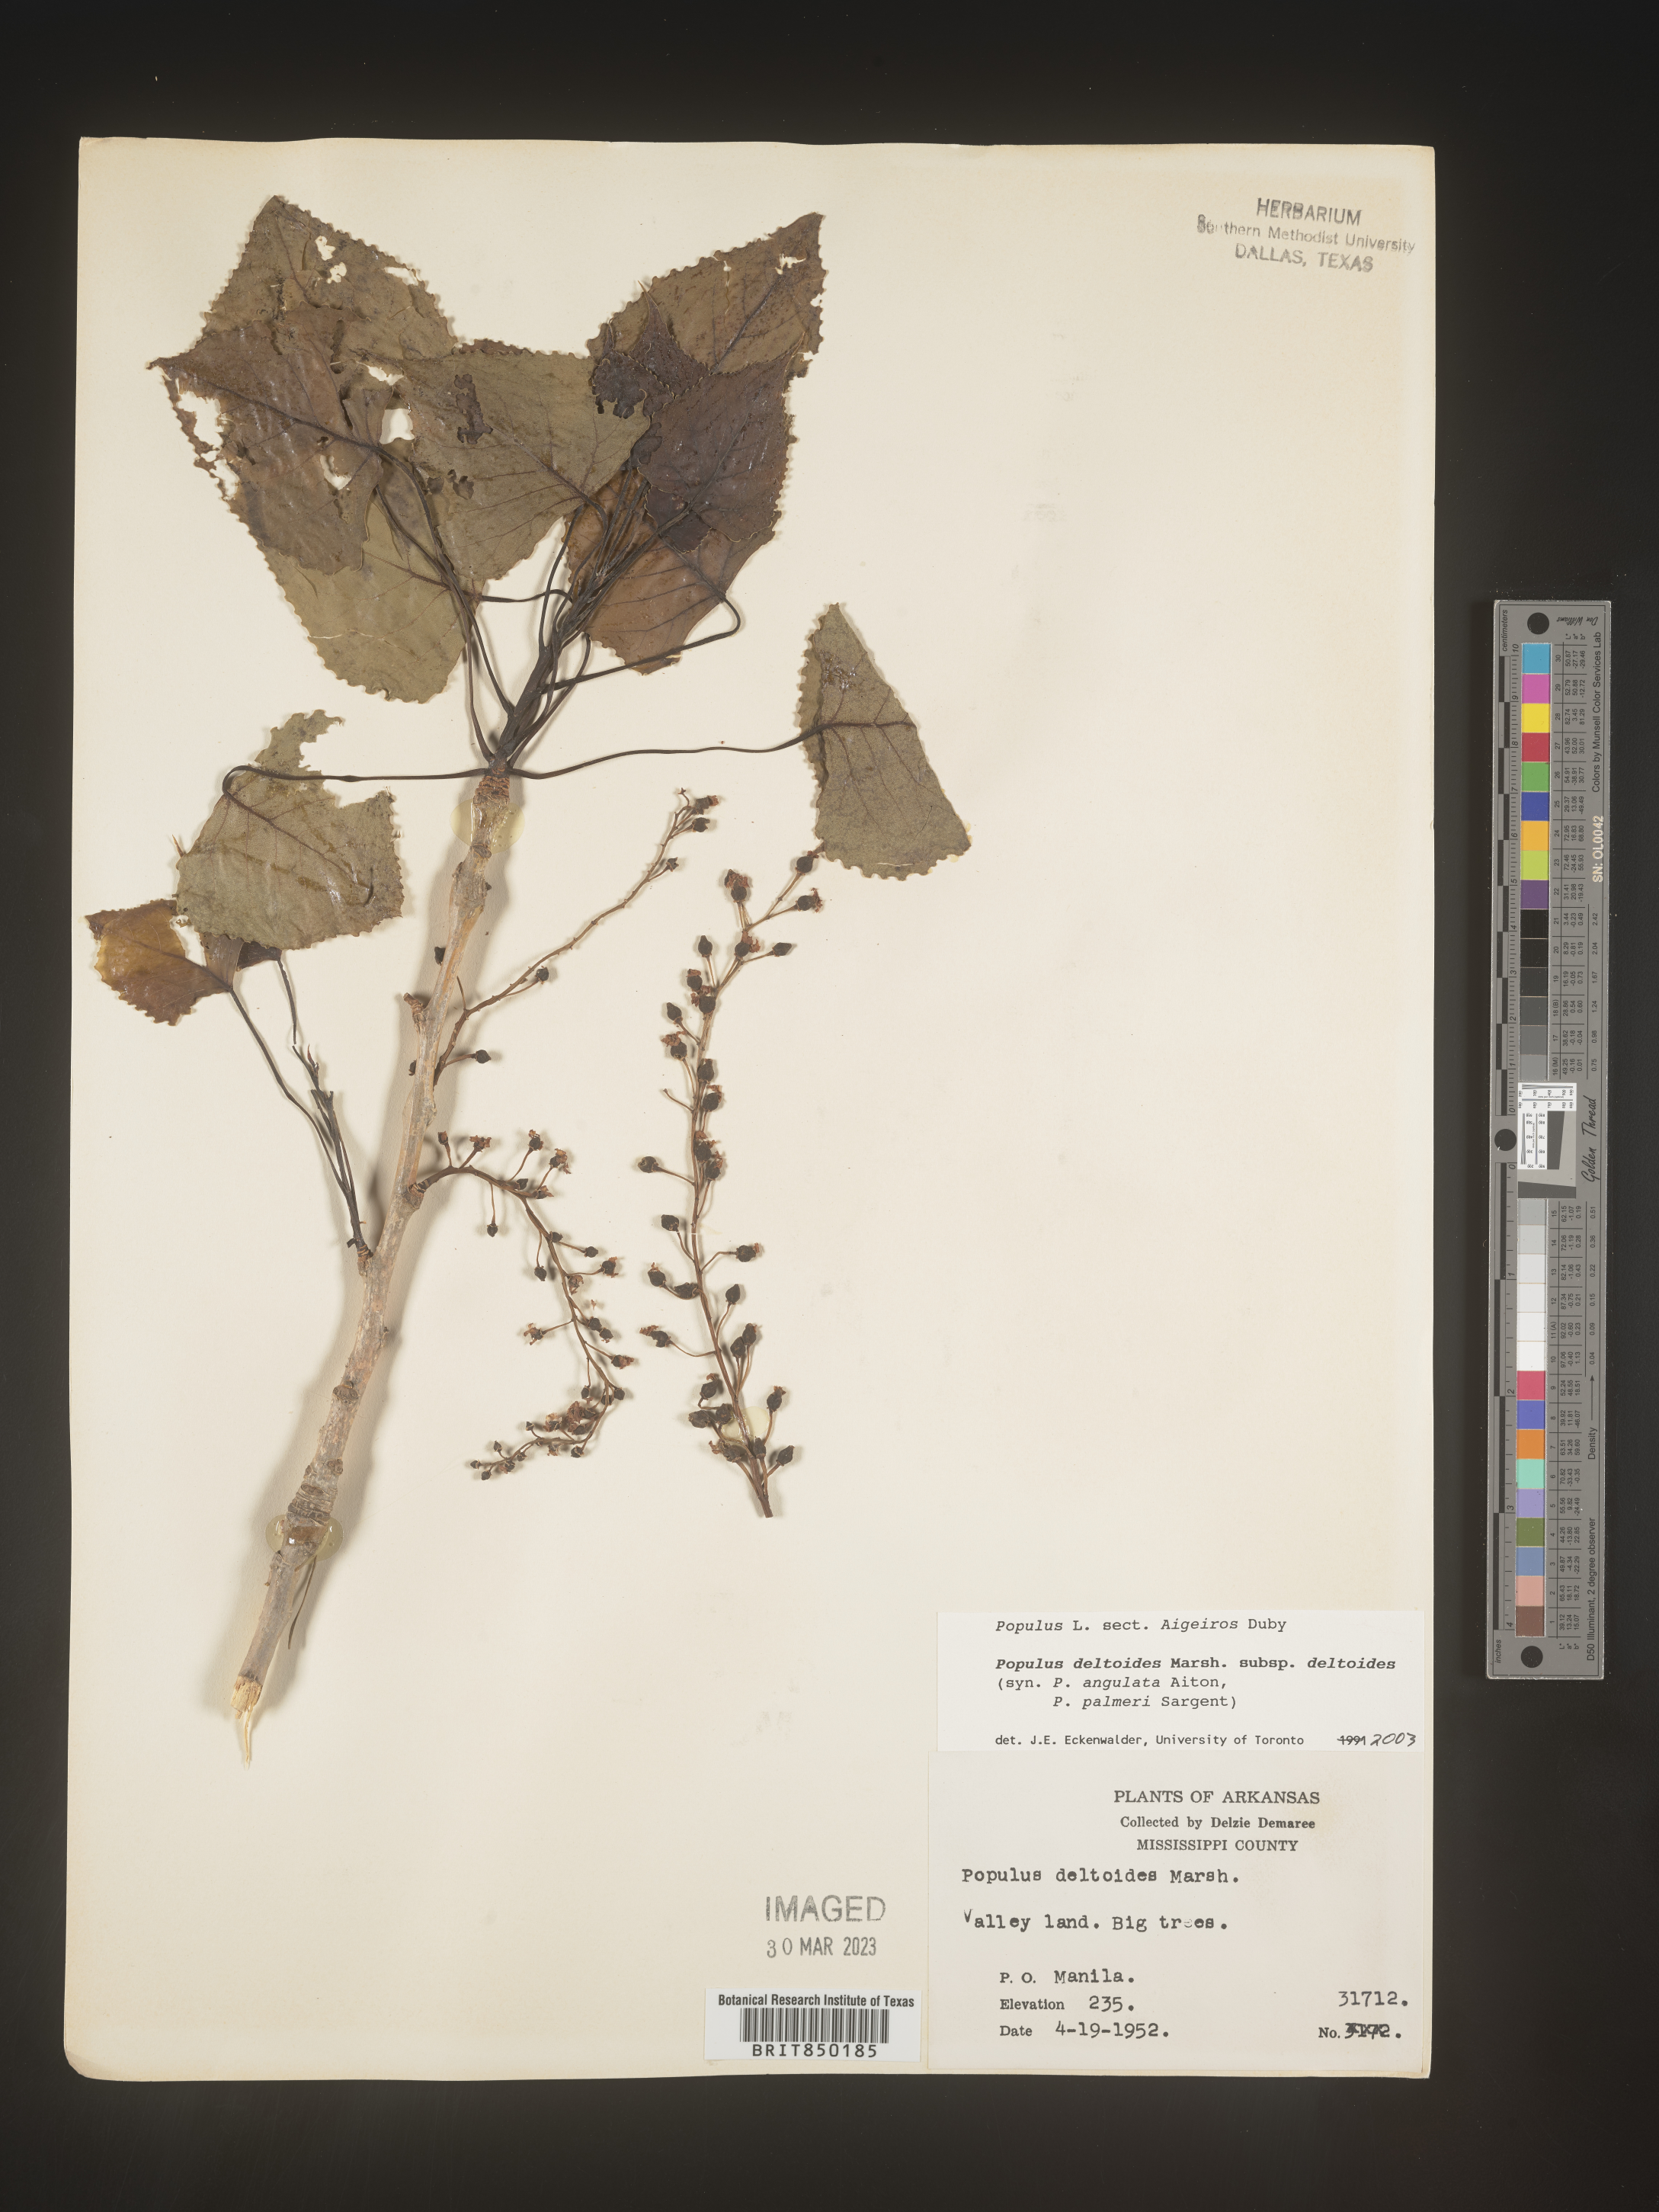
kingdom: Plantae
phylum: Tracheophyta
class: Magnoliopsida
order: Malpighiales
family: Salicaceae
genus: Populus
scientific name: Populus deltoides
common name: Eastern cottonwood
